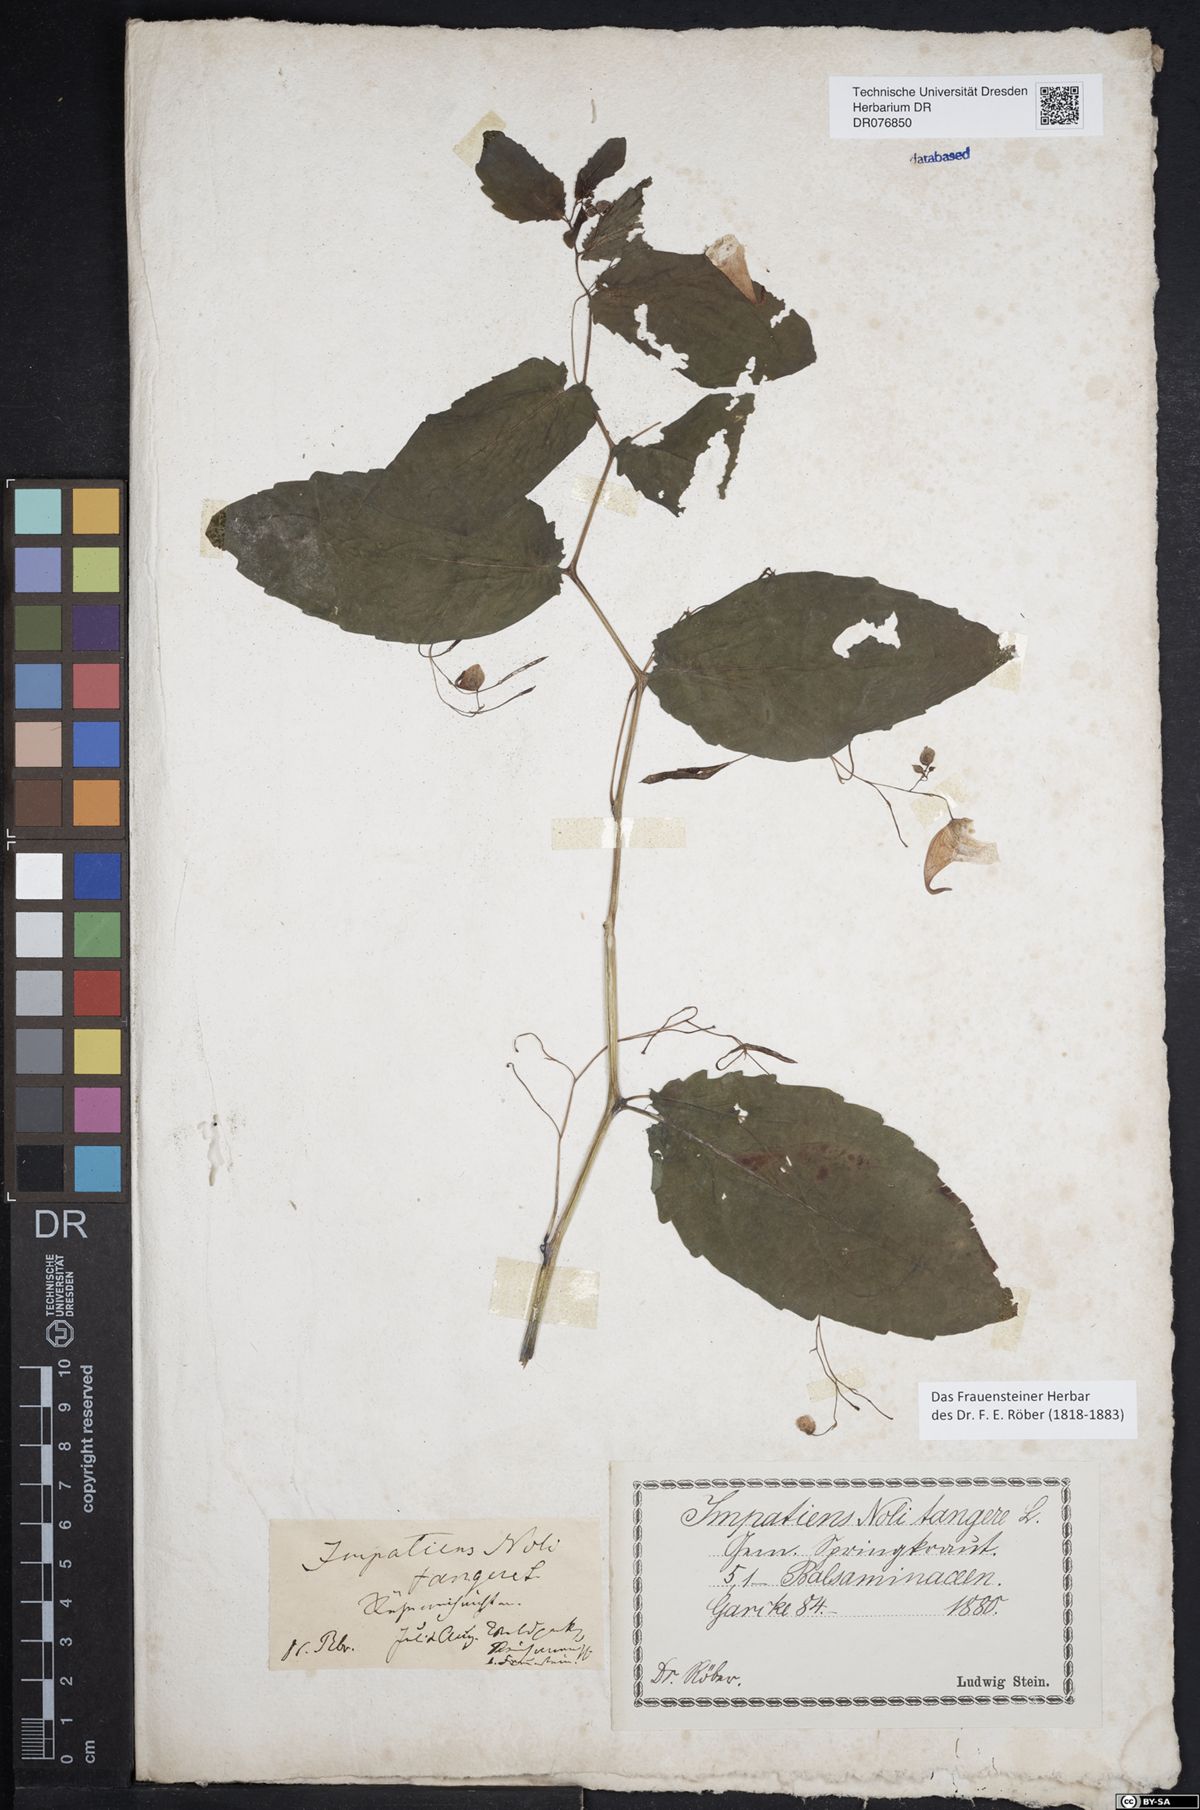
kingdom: Plantae
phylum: Tracheophyta
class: Magnoliopsida
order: Ericales
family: Balsaminaceae
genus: Impatiens
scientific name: Impatiens noli-tangere
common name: Touch-me-not balsam
